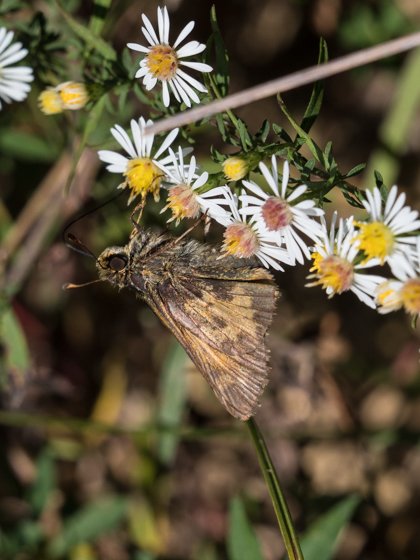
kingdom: Animalia
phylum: Arthropoda
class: Insecta
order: Lepidoptera
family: Hesperiidae
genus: Polites
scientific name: Polites coras
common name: Peck's Skipper
